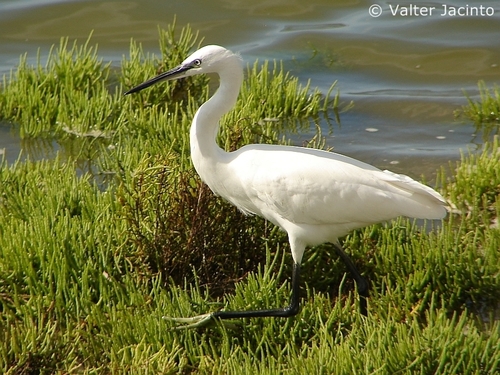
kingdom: Animalia
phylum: Chordata
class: Aves
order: Pelecaniformes
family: Ardeidae
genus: Egretta
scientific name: Egretta garzetta
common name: Little egret
